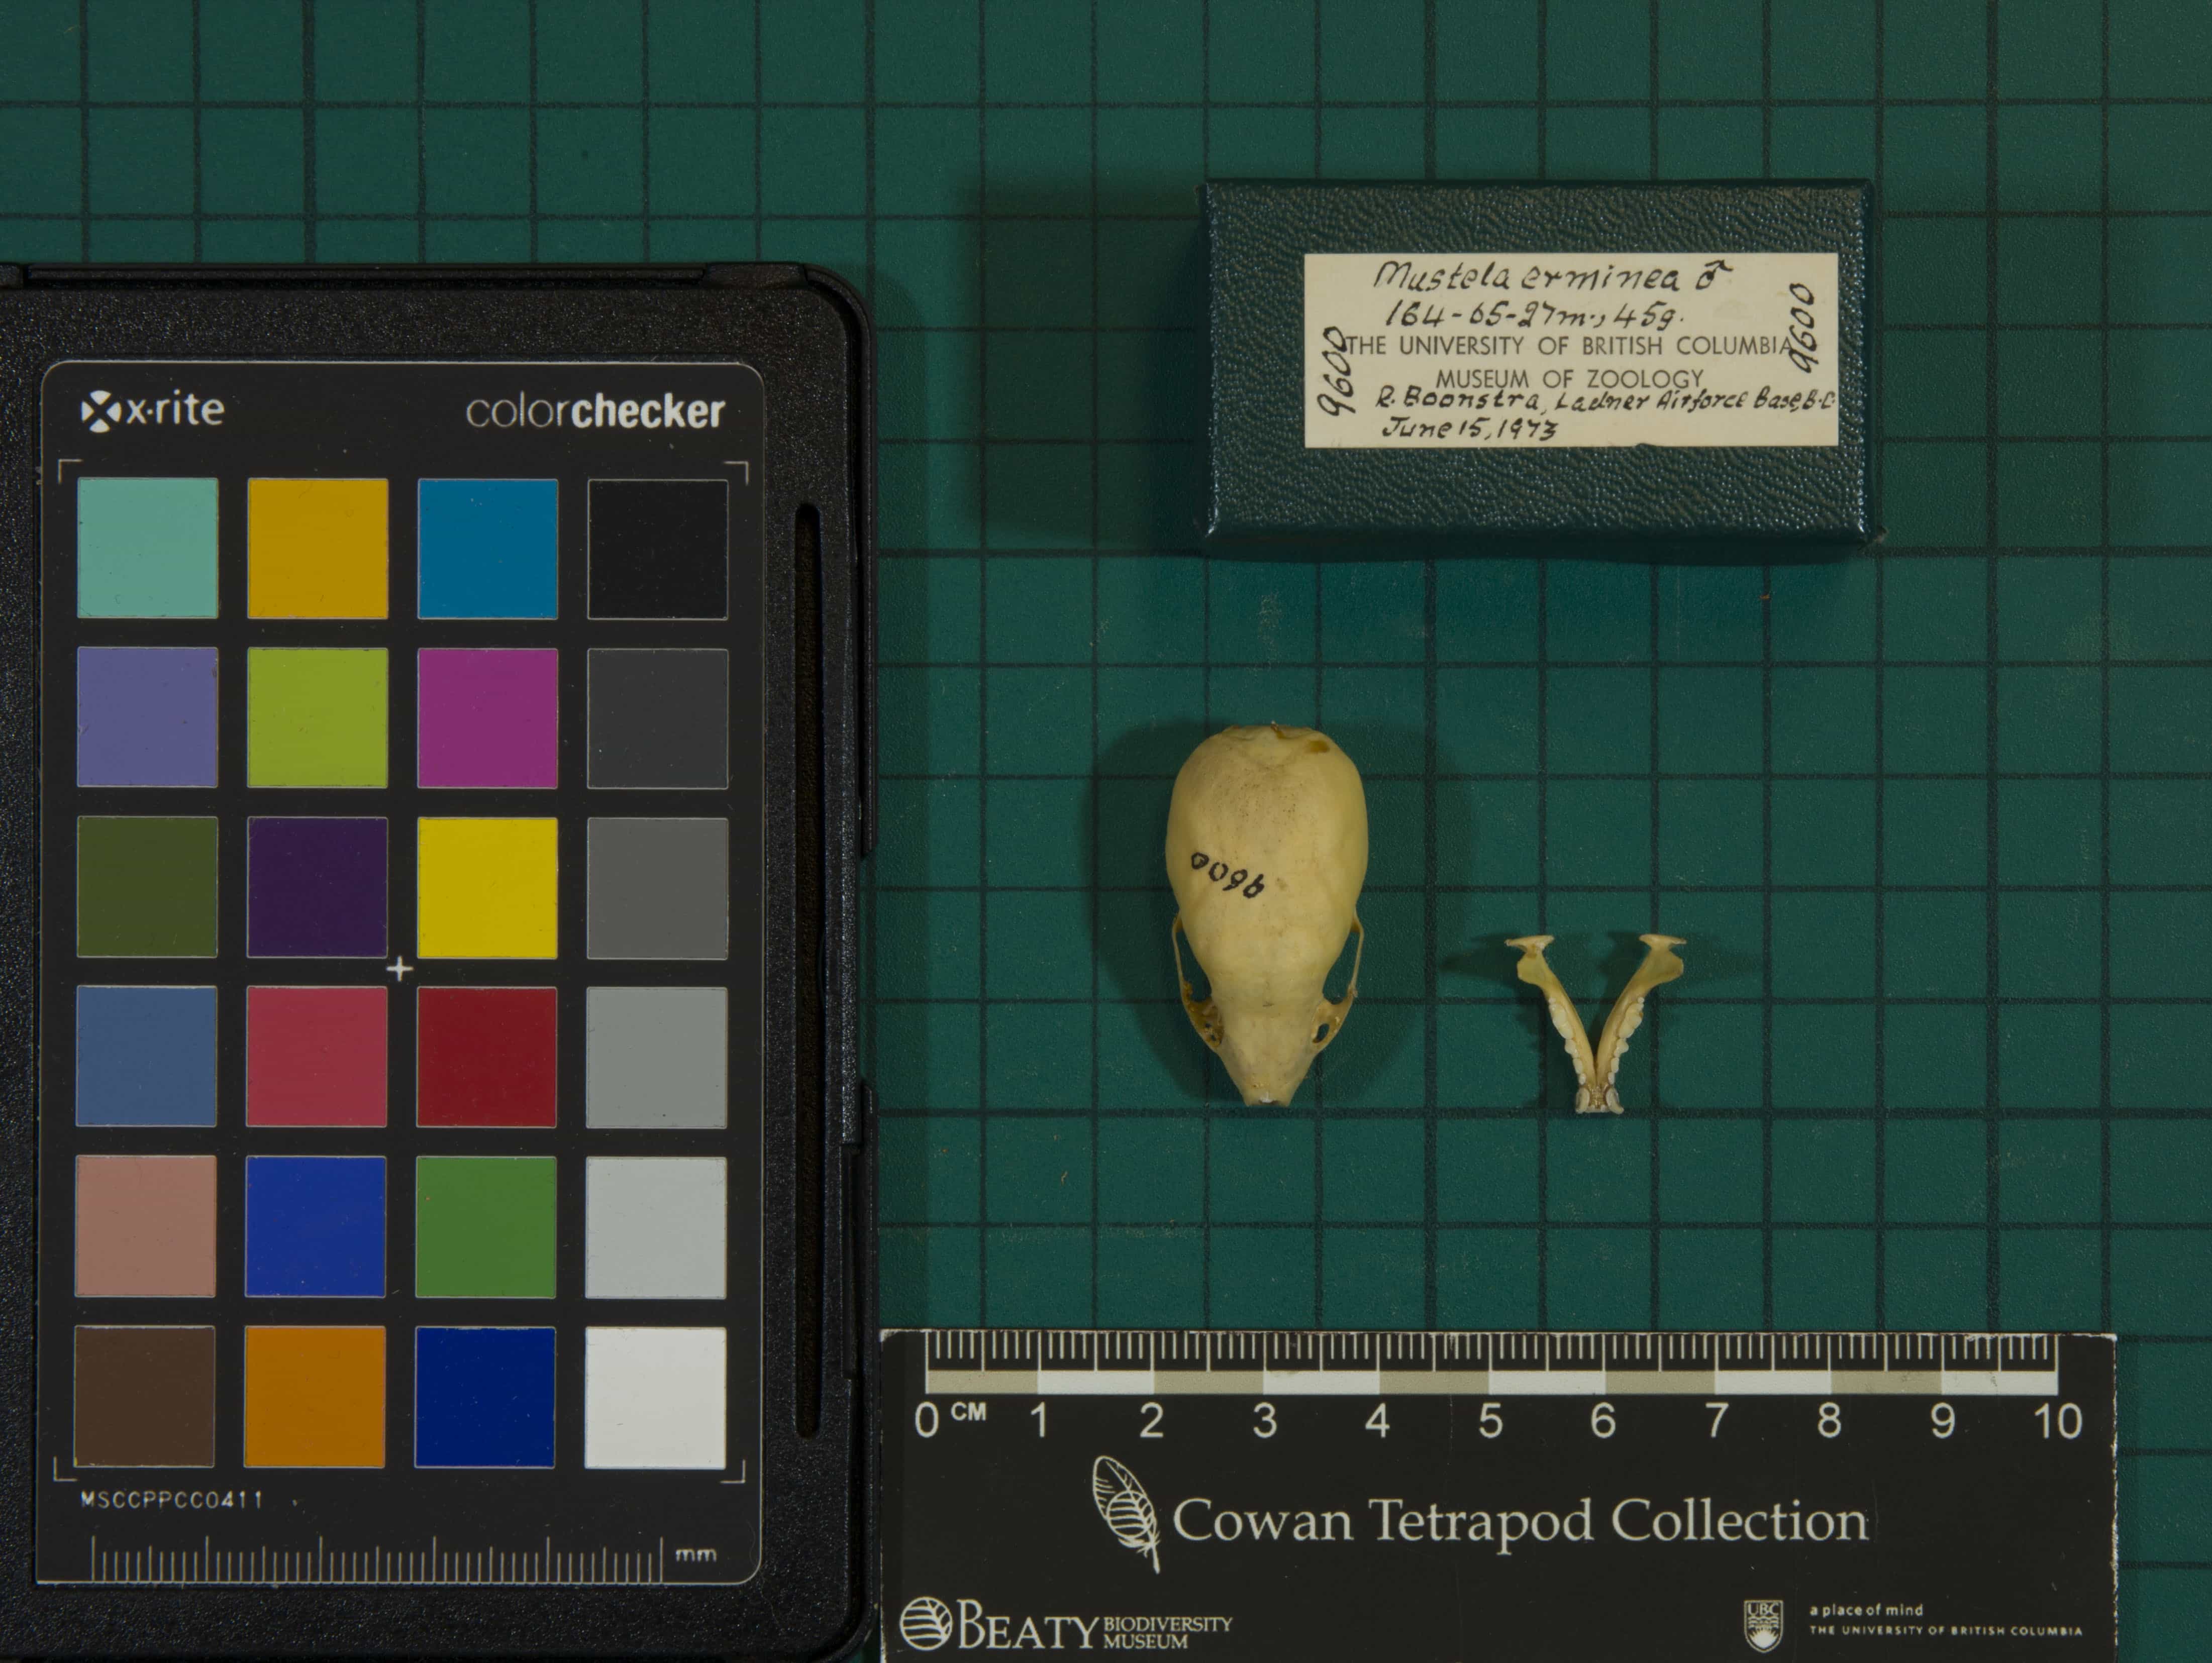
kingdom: Animalia
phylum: Chordata
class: Mammalia
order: Carnivora
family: Mustelidae
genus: Mustela
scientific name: Mustela erminea
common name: Ermine
